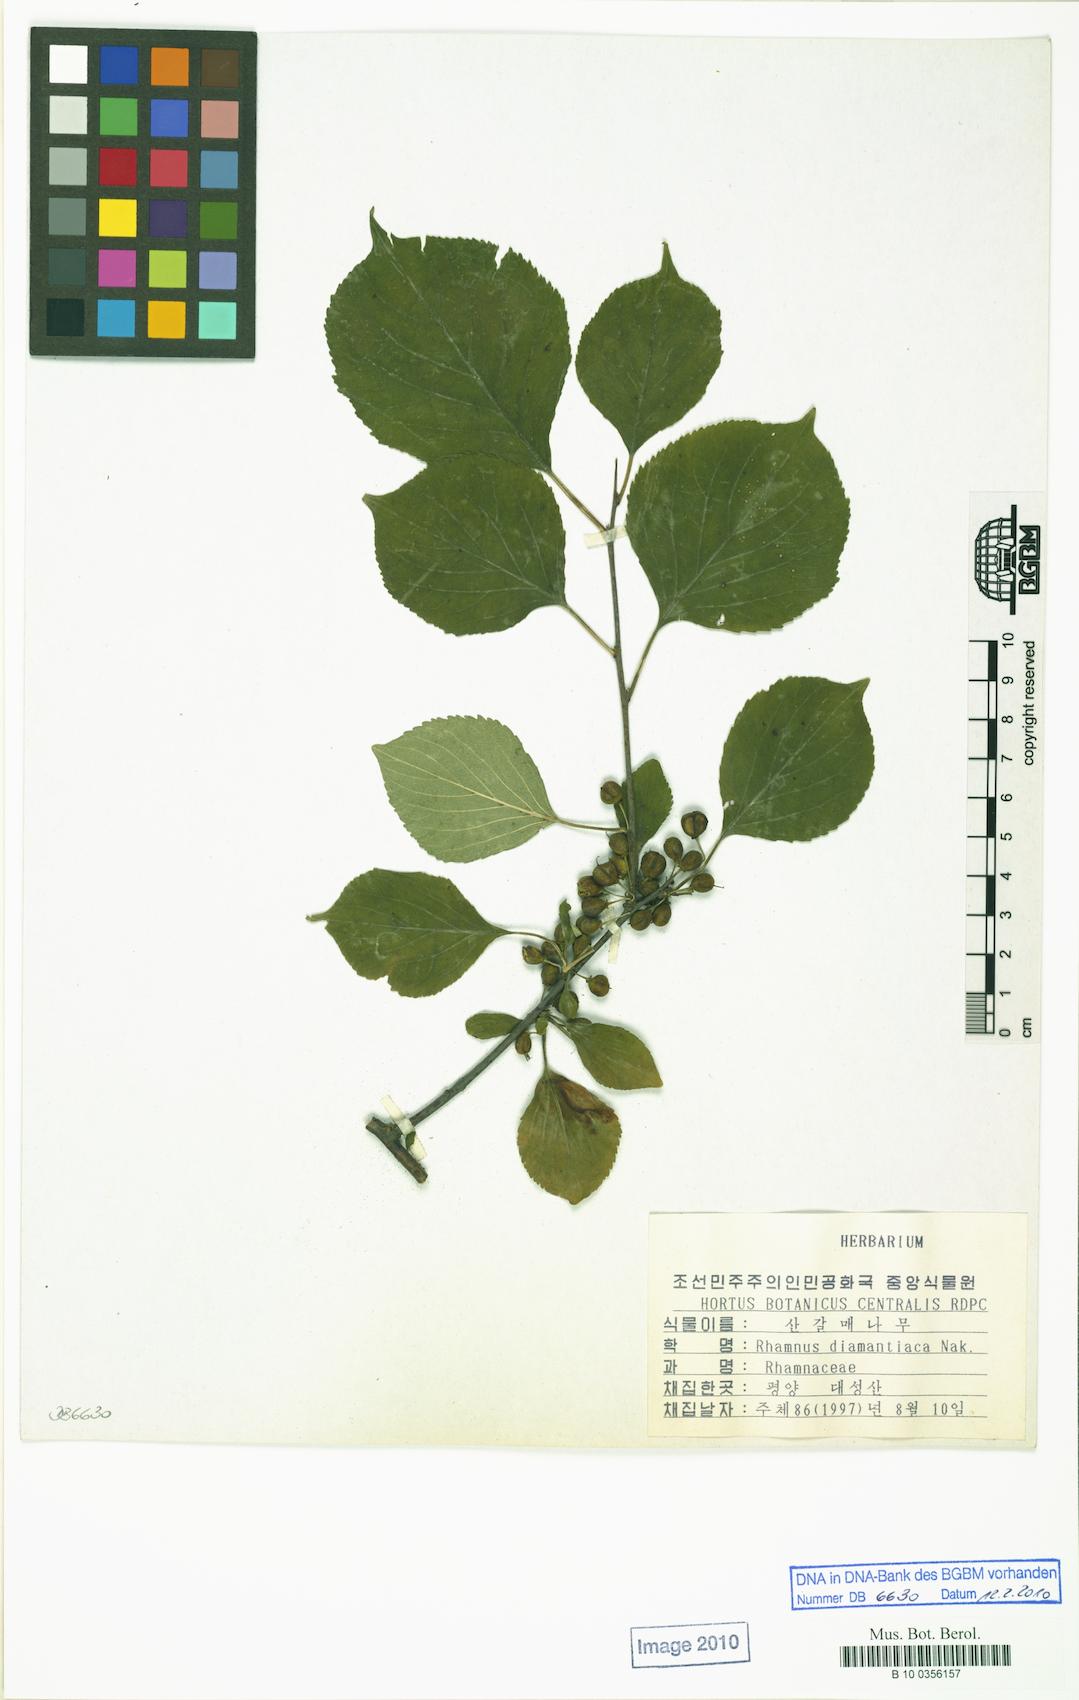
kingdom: Plantae
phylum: Tracheophyta
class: Magnoliopsida
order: Rosales
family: Rhamnaceae
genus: Rhamnus
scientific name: Rhamnus rugulosa
